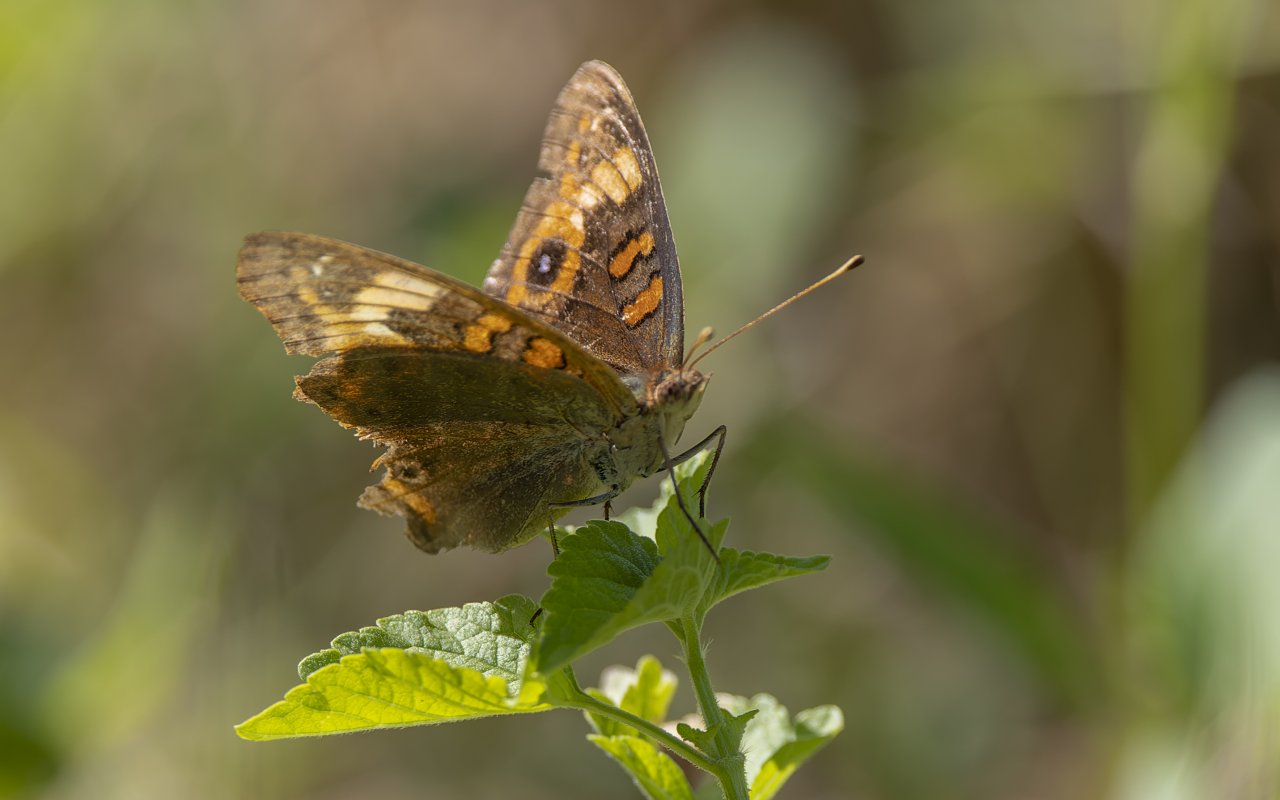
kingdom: Animalia
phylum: Arthropoda
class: Insecta
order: Lepidoptera
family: Nymphalidae
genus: Junonia
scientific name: Junonia coenia
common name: Common Buckeye
